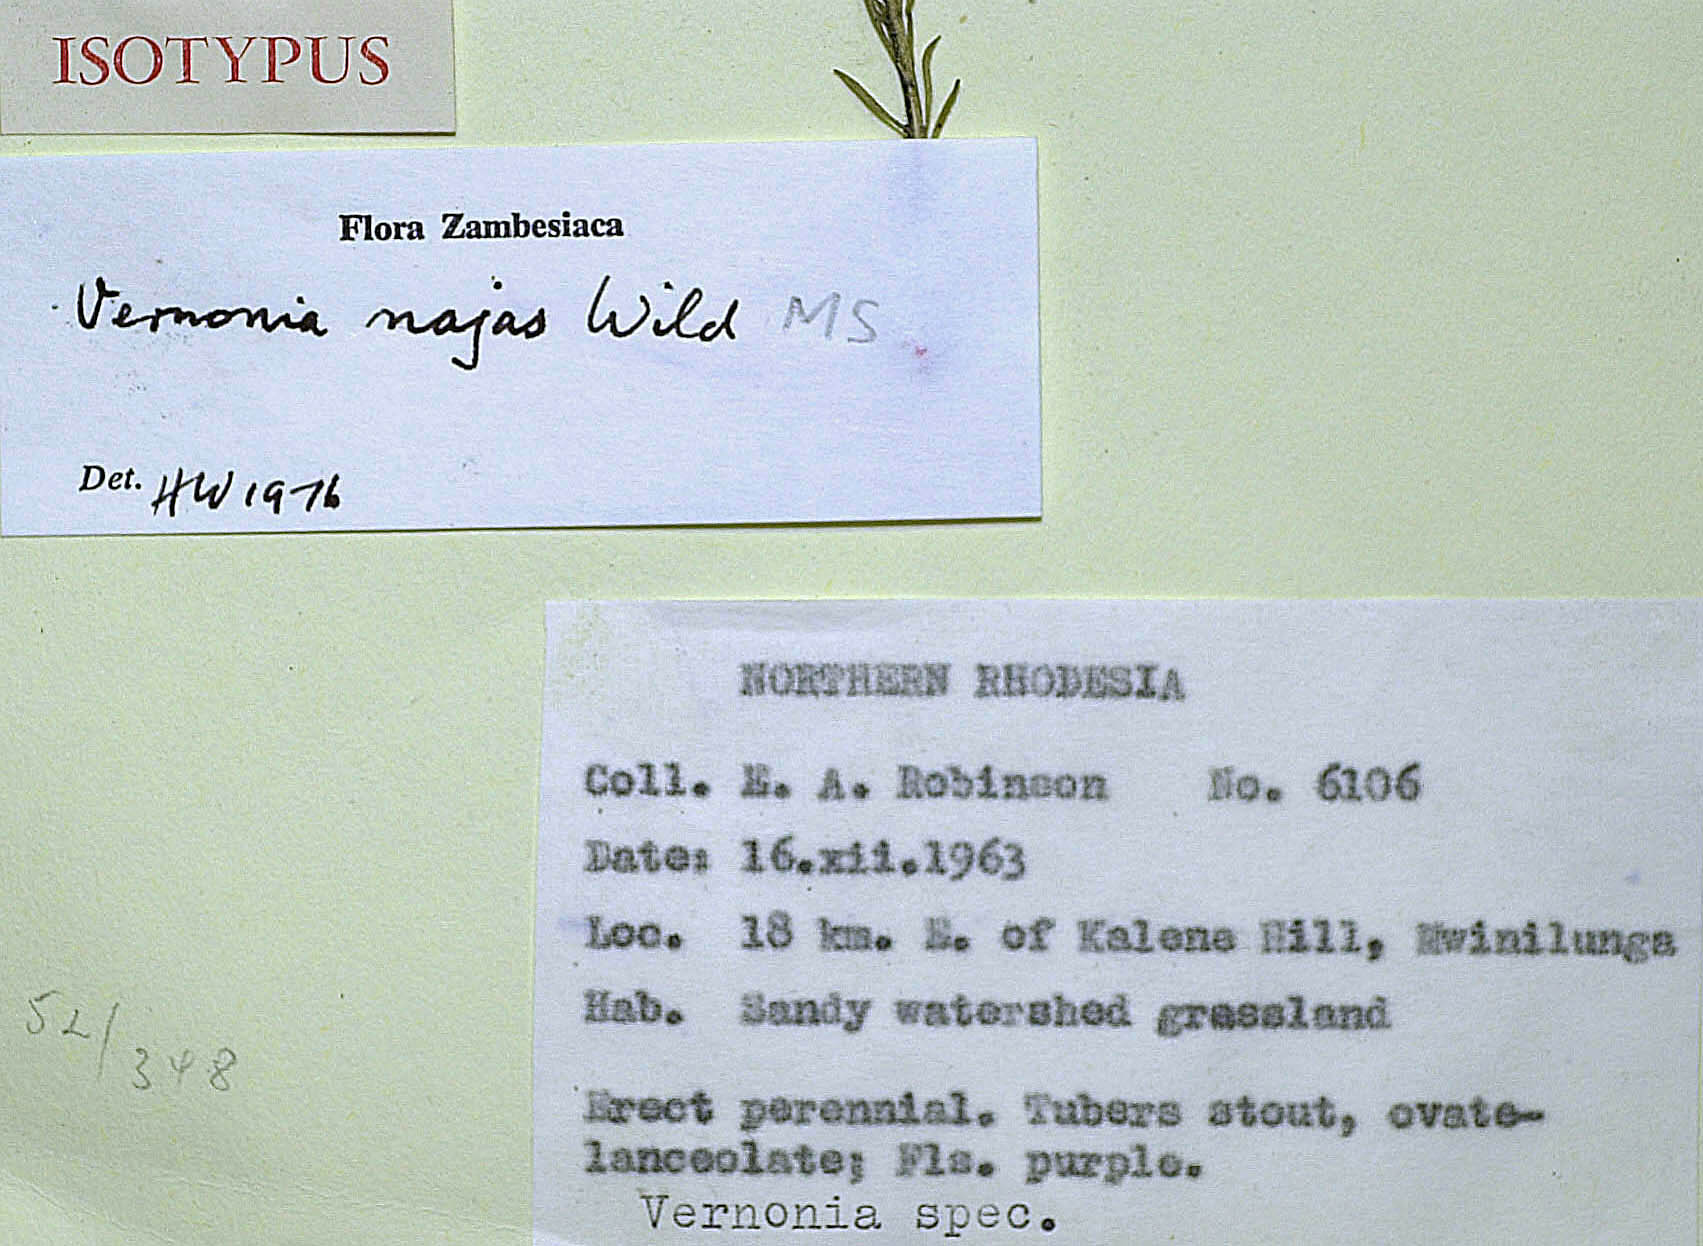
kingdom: Plantae
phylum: Tracheophyta
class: Magnoliopsida
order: Asterales
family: Asteraceae
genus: Vernonia
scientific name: Vernonia najas
